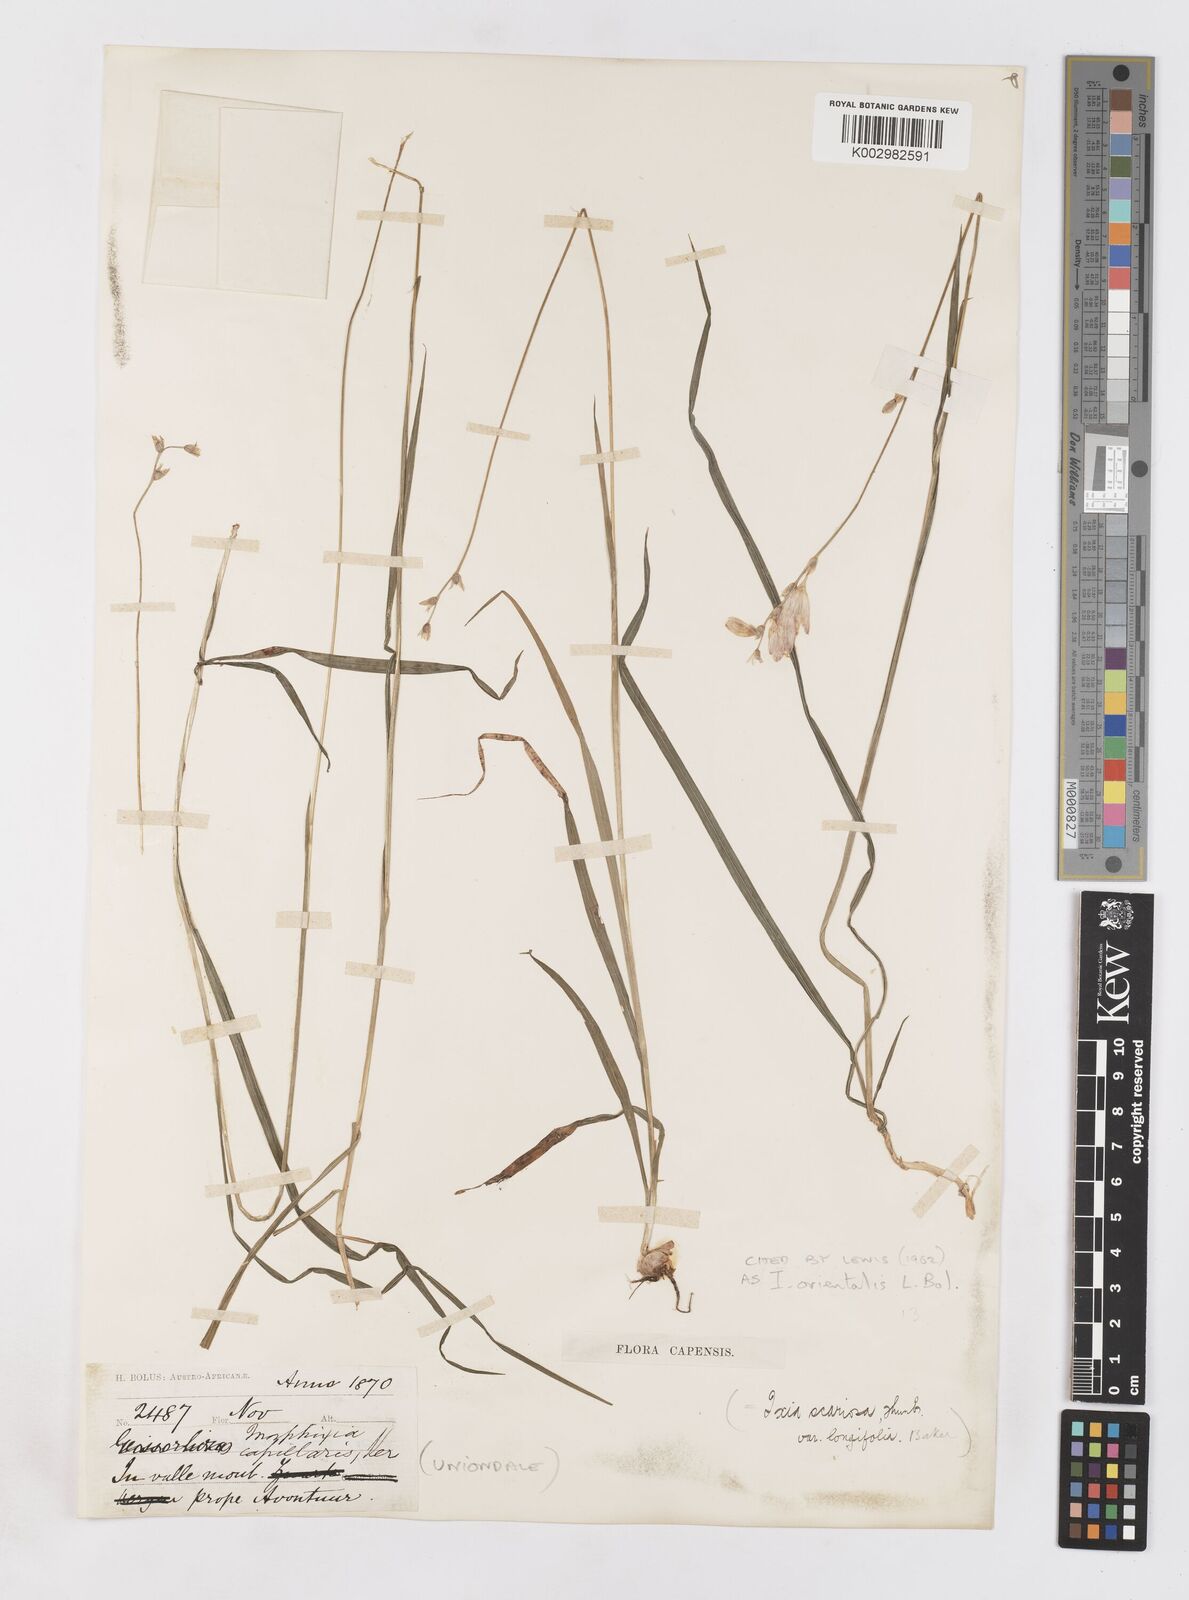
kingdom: Plantae
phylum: Tracheophyta
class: Liliopsida
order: Asparagales
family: Iridaceae
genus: Ixia
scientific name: Ixia orientalis
